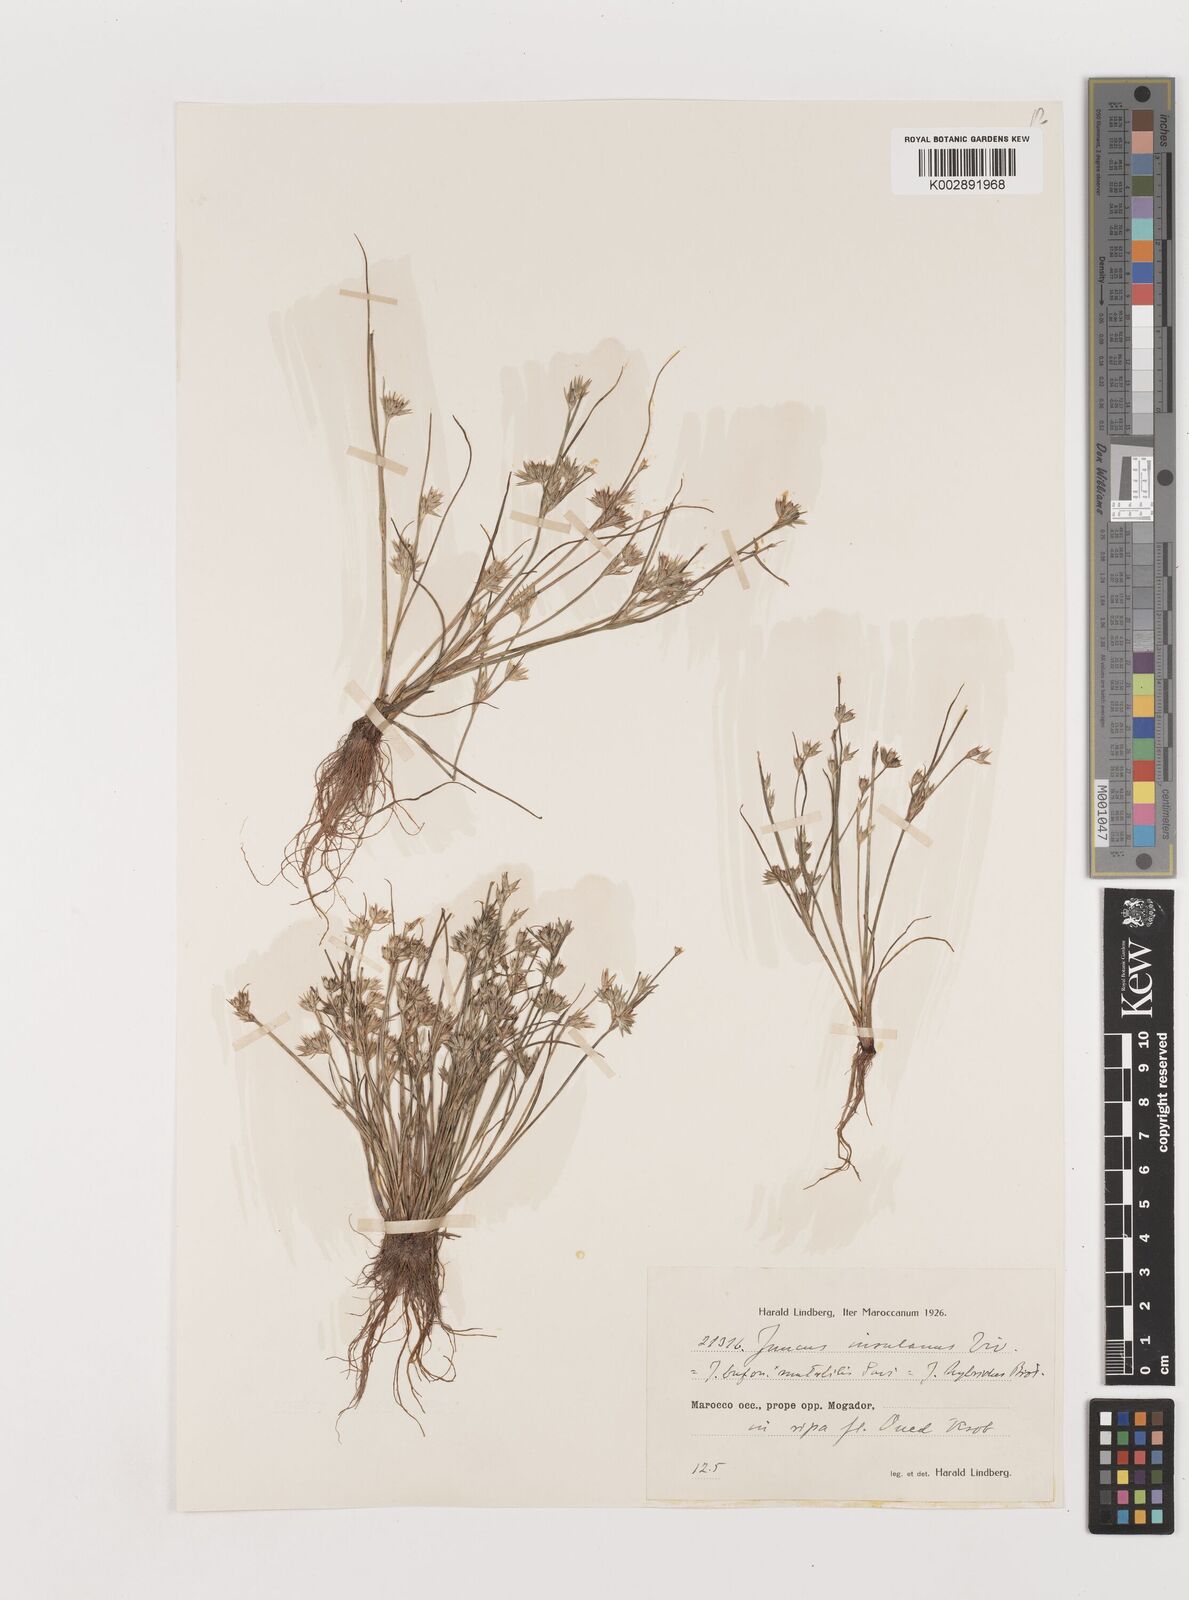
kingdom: Plantae
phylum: Tracheophyta
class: Liliopsida
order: Poales
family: Juncaceae
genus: Juncus
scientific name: Juncus bufonius
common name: Toad rush
